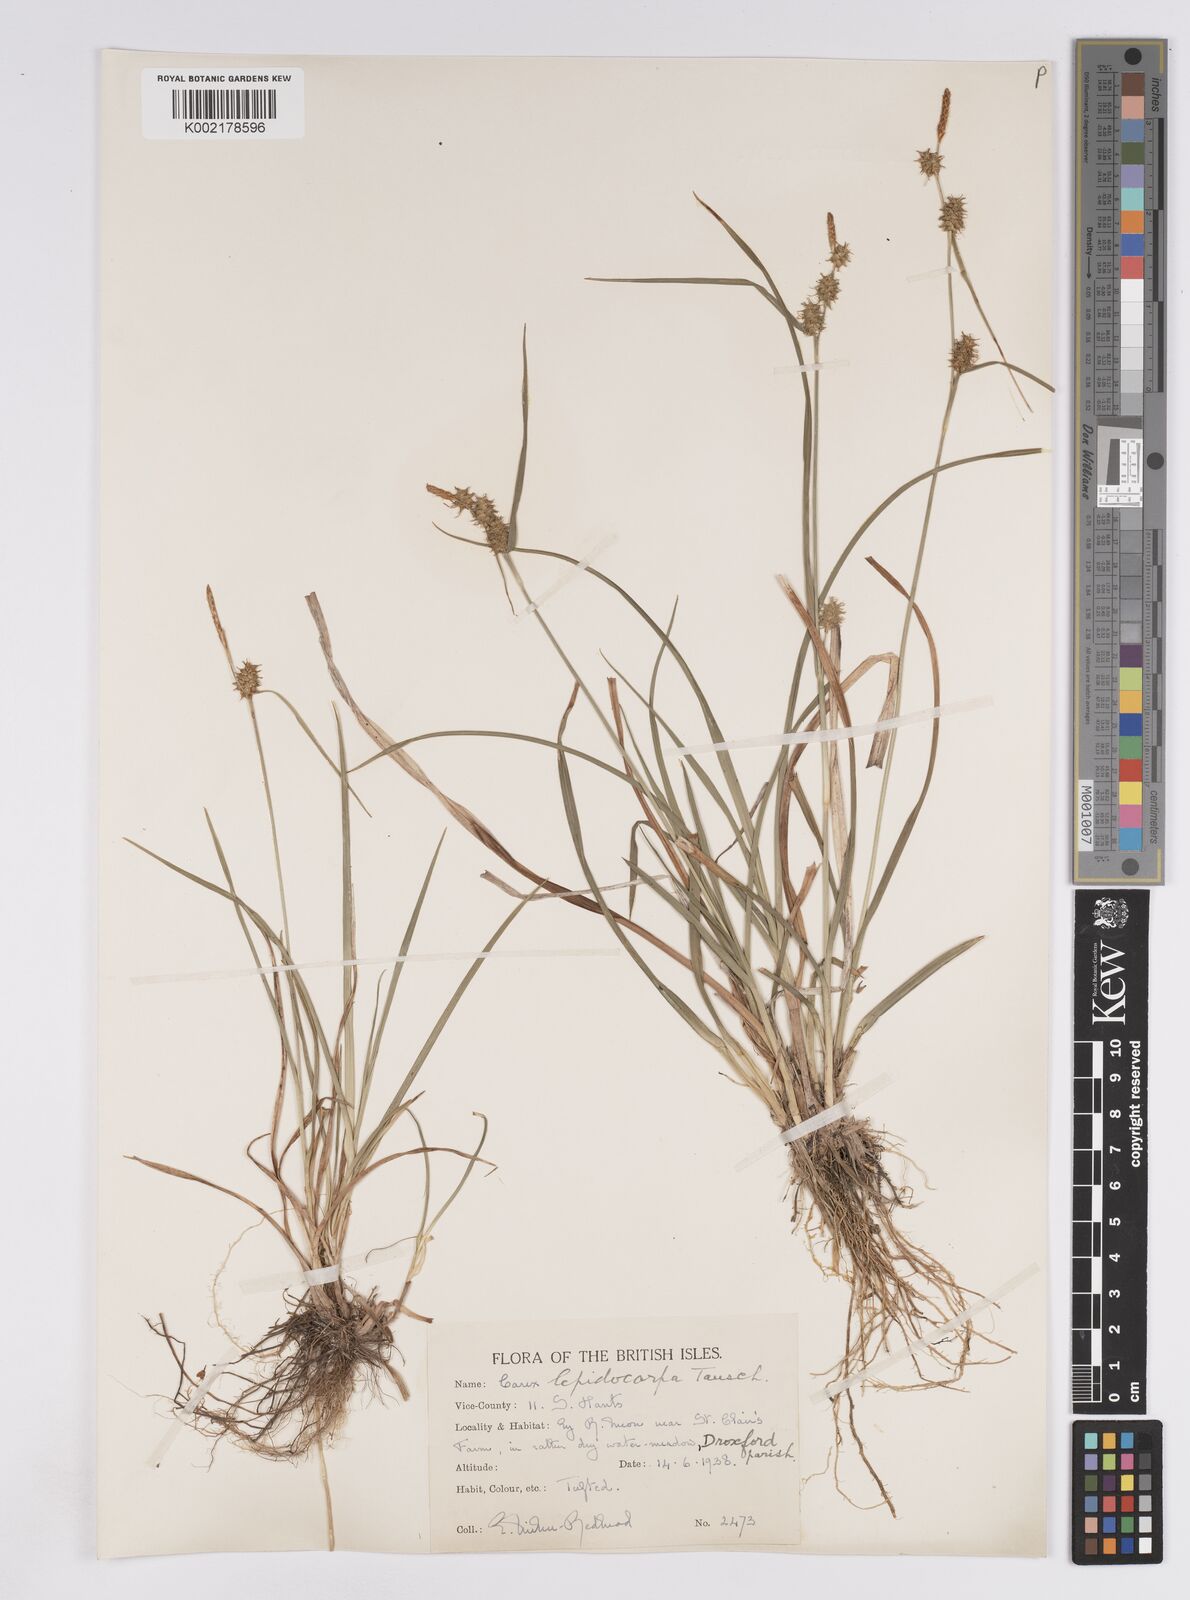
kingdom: Plantae
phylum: Tracheophyta
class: Liliopsida
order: Poales
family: Cyperaceae
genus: Carex
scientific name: Carex lepidocarpa
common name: Long-stalked yellow-sedge
